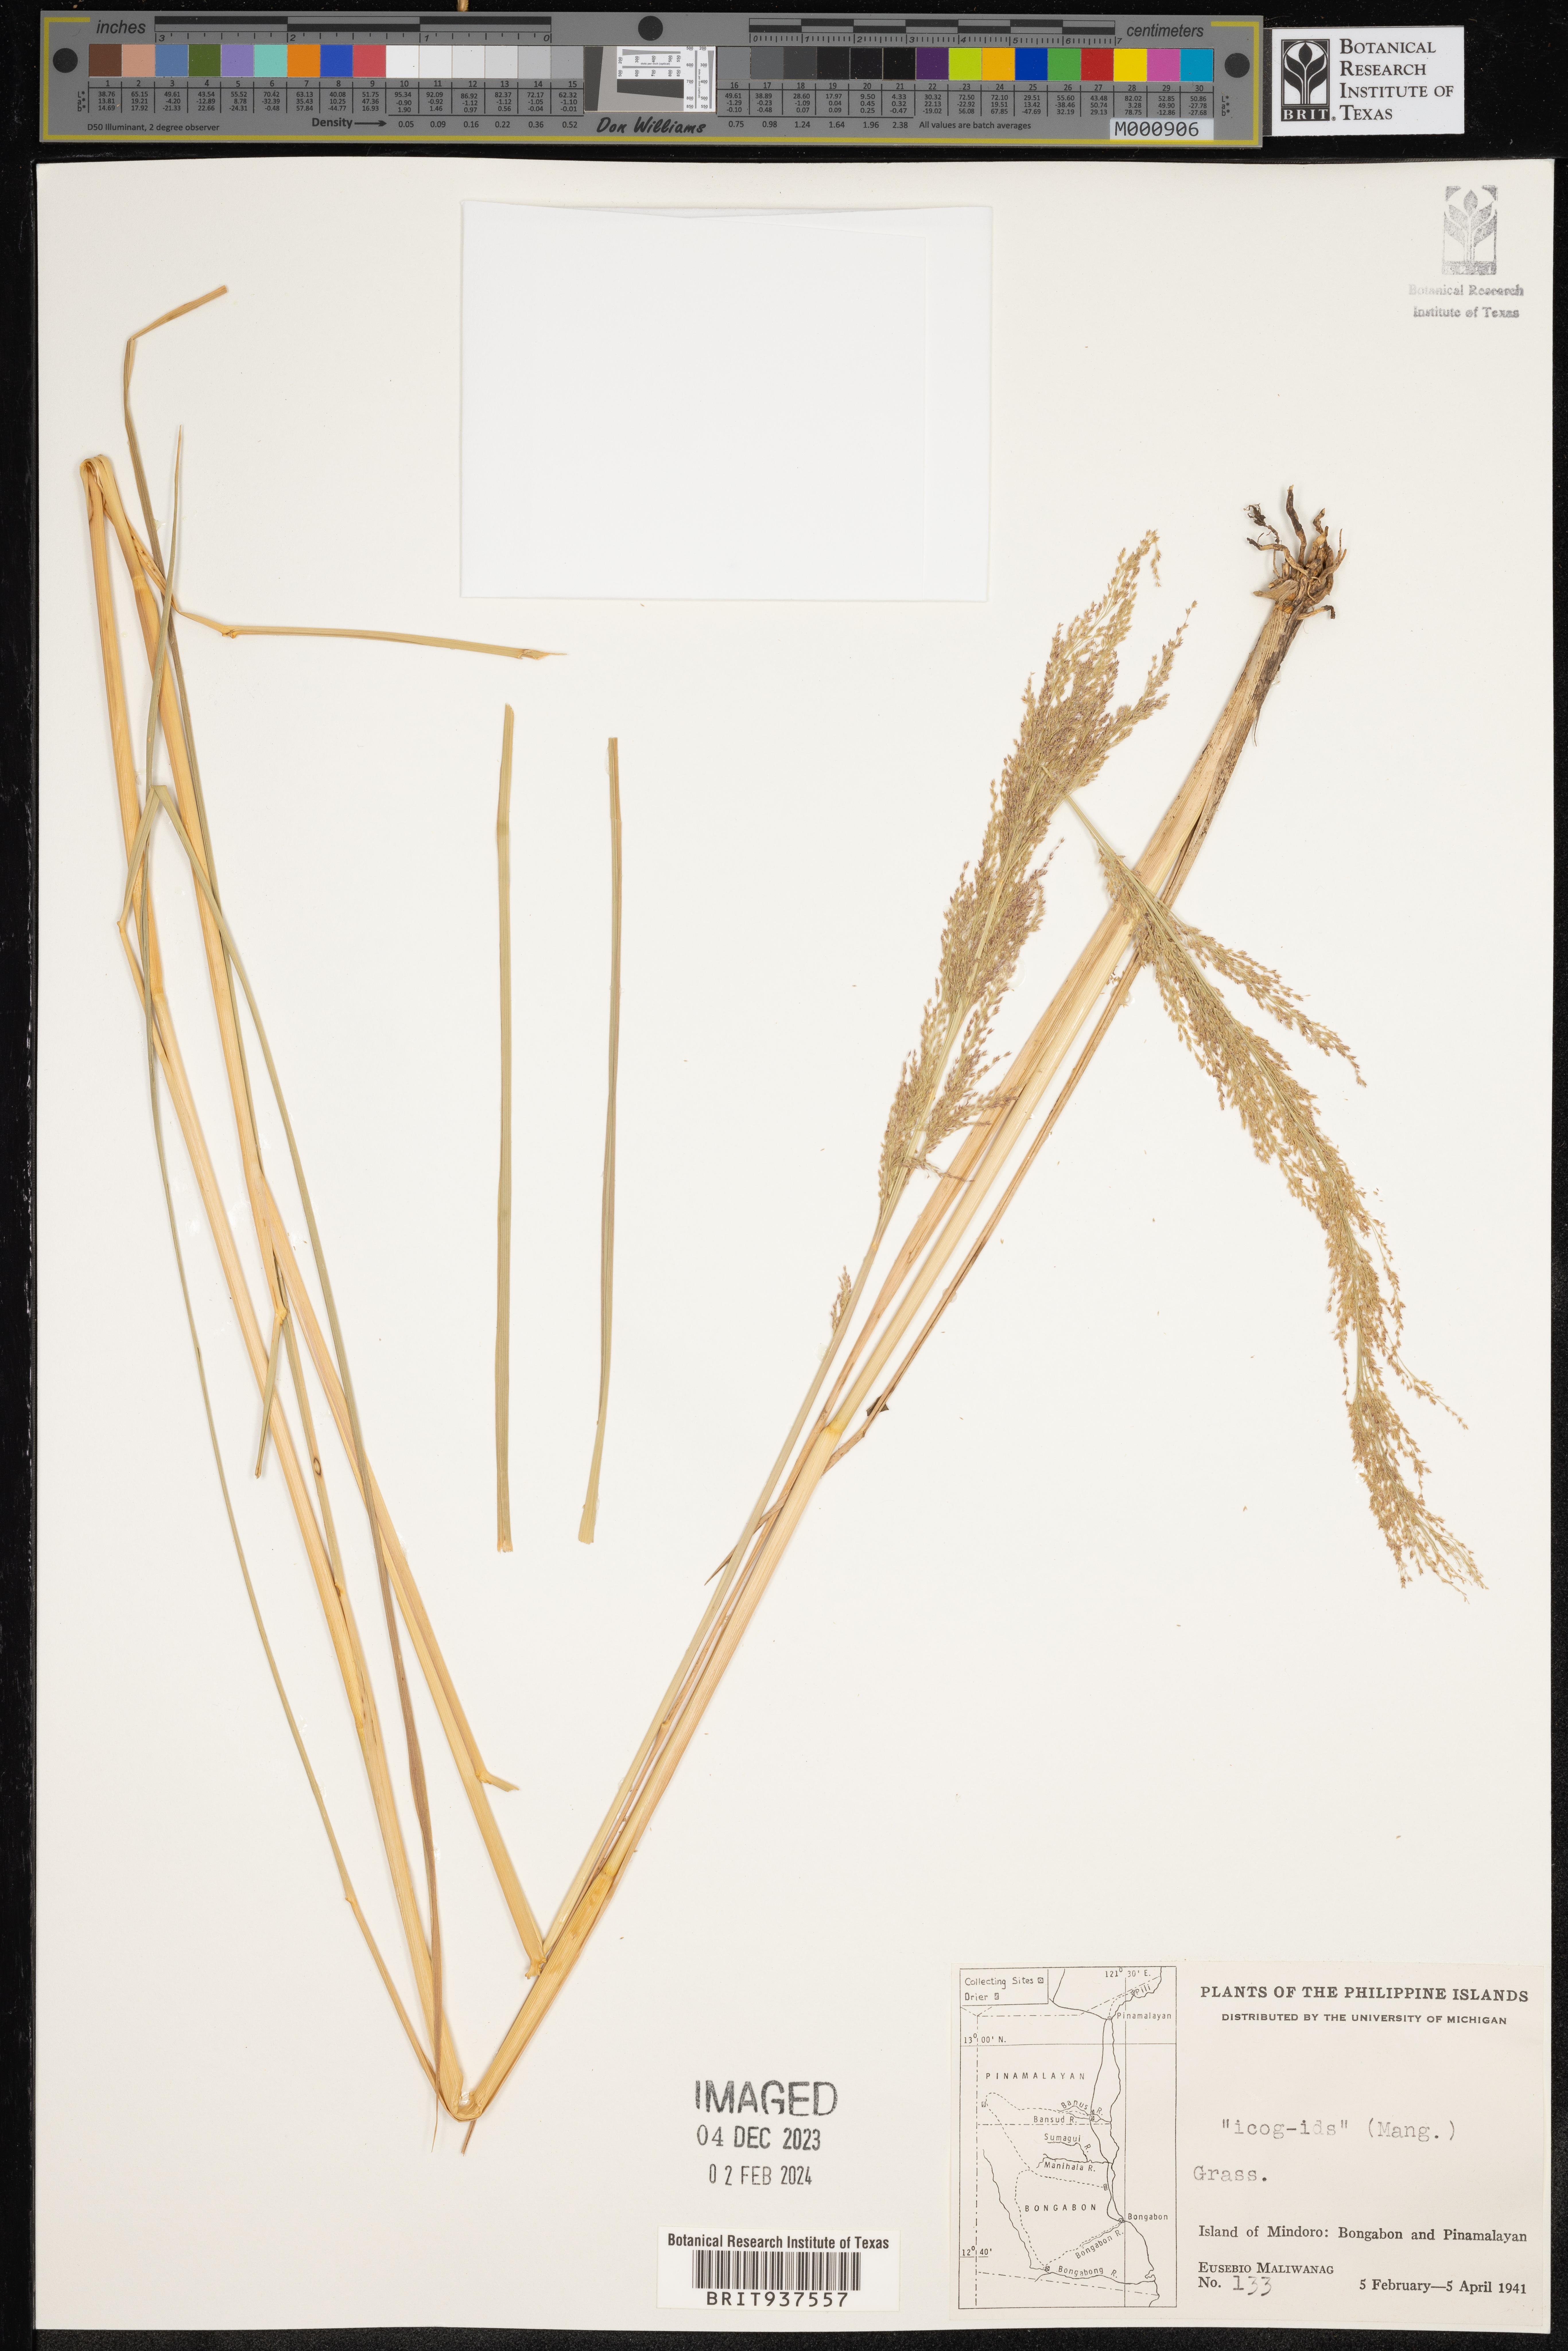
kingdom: Plantae
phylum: Tracheophyta
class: Liliopsida
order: Poales
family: Poaceae
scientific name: Poaceae
